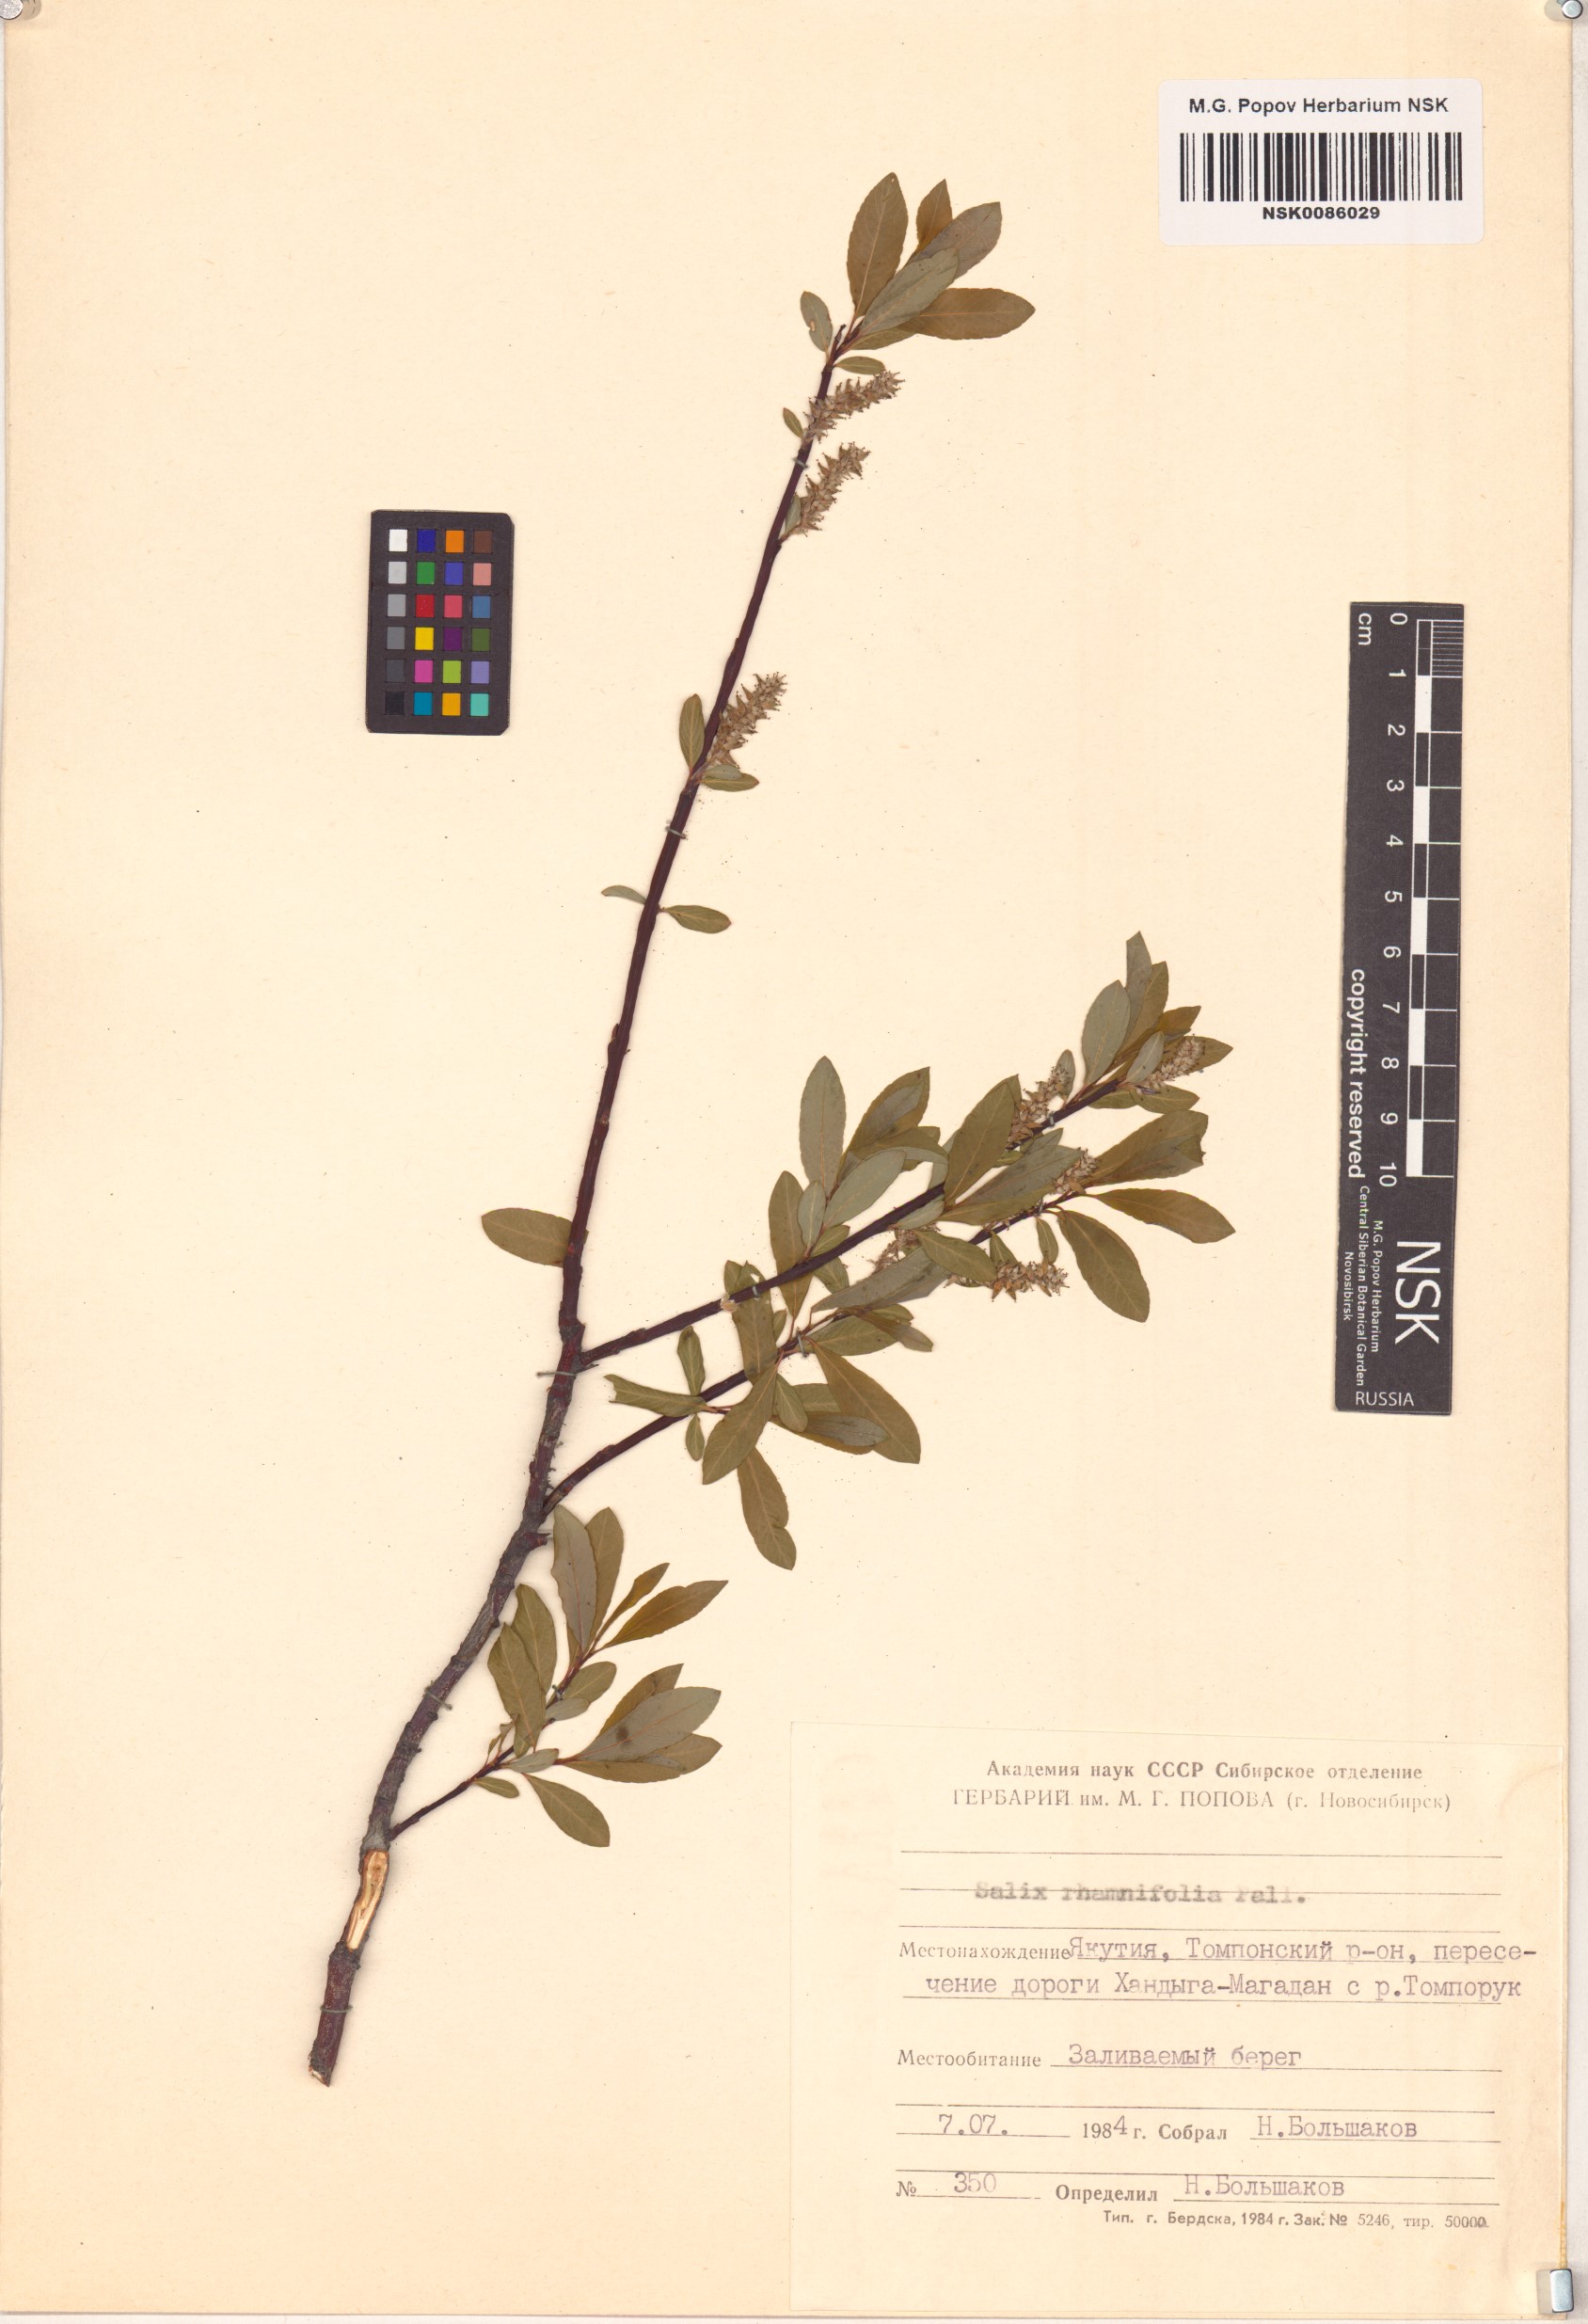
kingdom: Plantae
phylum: Tracheophyta
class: Magnoliopsida
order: Malpighiales
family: Salicaceae
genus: Salix
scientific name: Salix rhamnifolia
